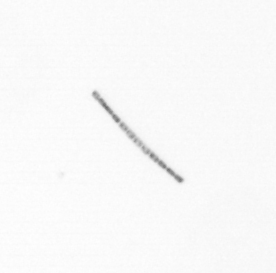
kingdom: Chromista
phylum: Ochrophyta
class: Bacillariophyceae
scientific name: Bacillariophyceae
